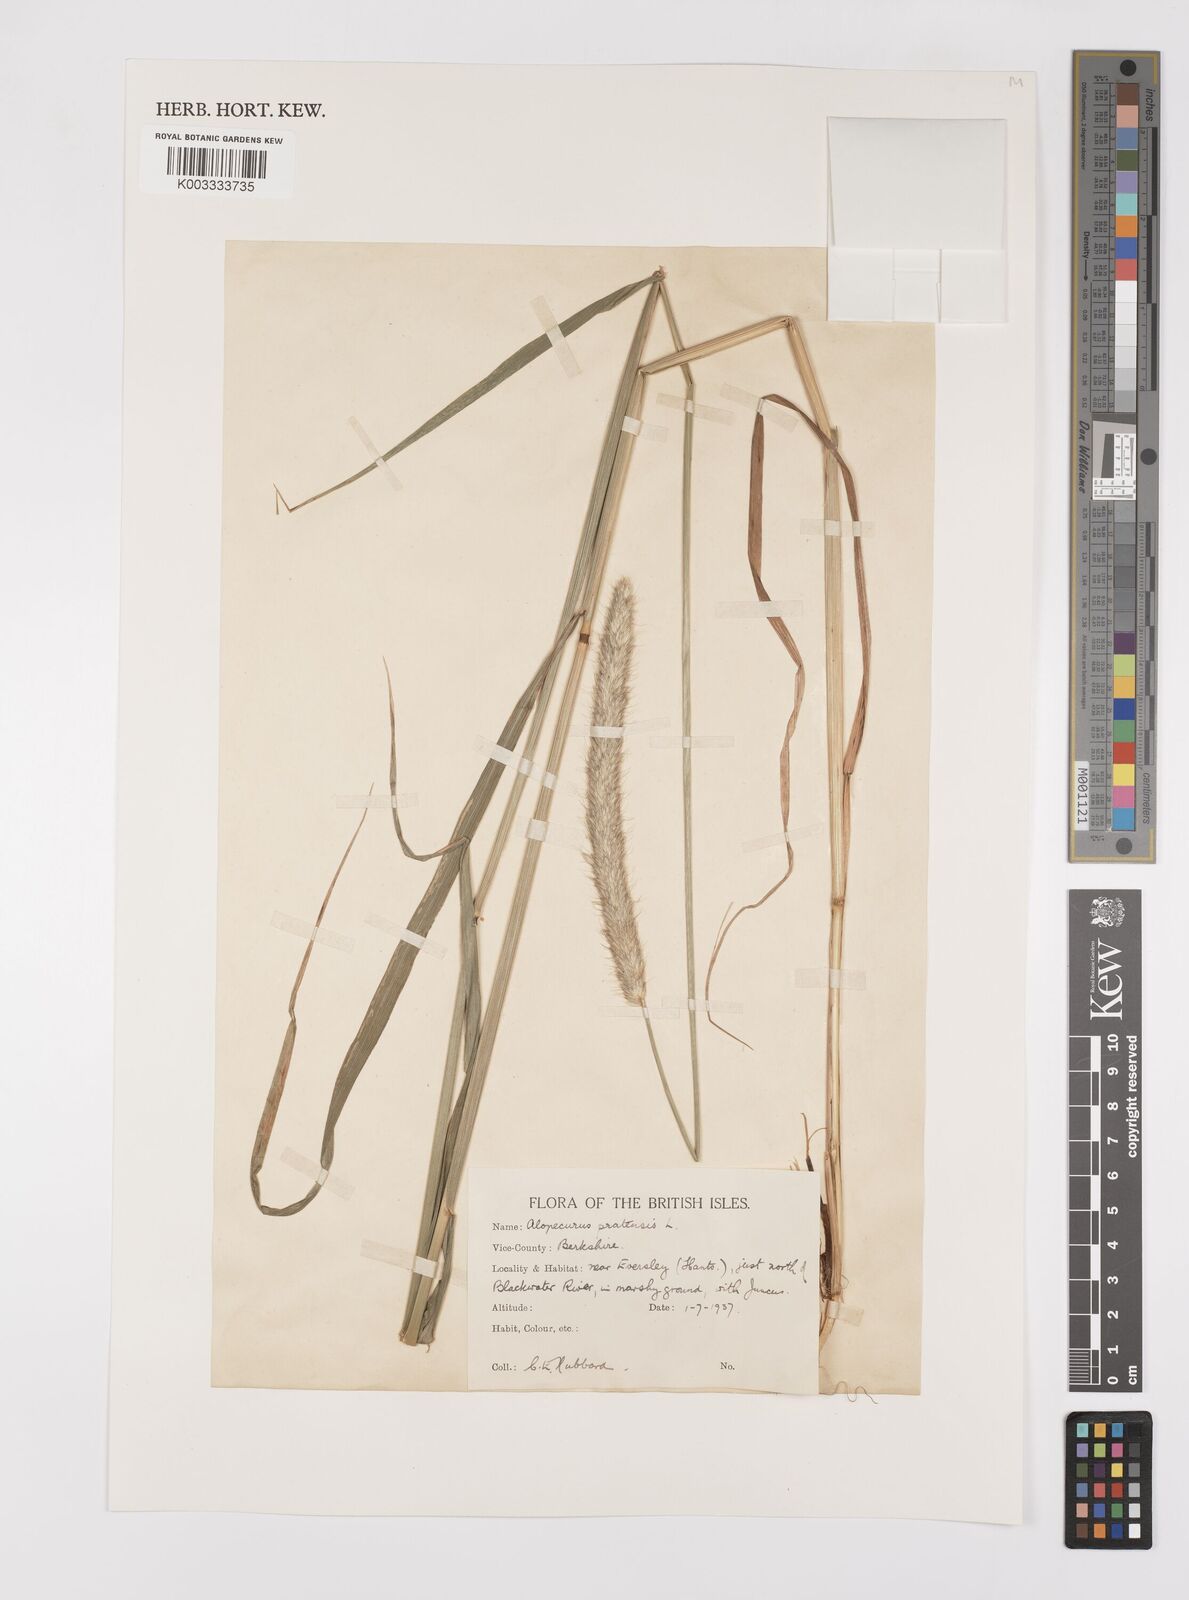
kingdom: Plantae
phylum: Tracheophyta
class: Liliopsida
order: Poales
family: Poaceae
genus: Alopecurus
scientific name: Alopecurus pratensis
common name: Meadow foxtail
